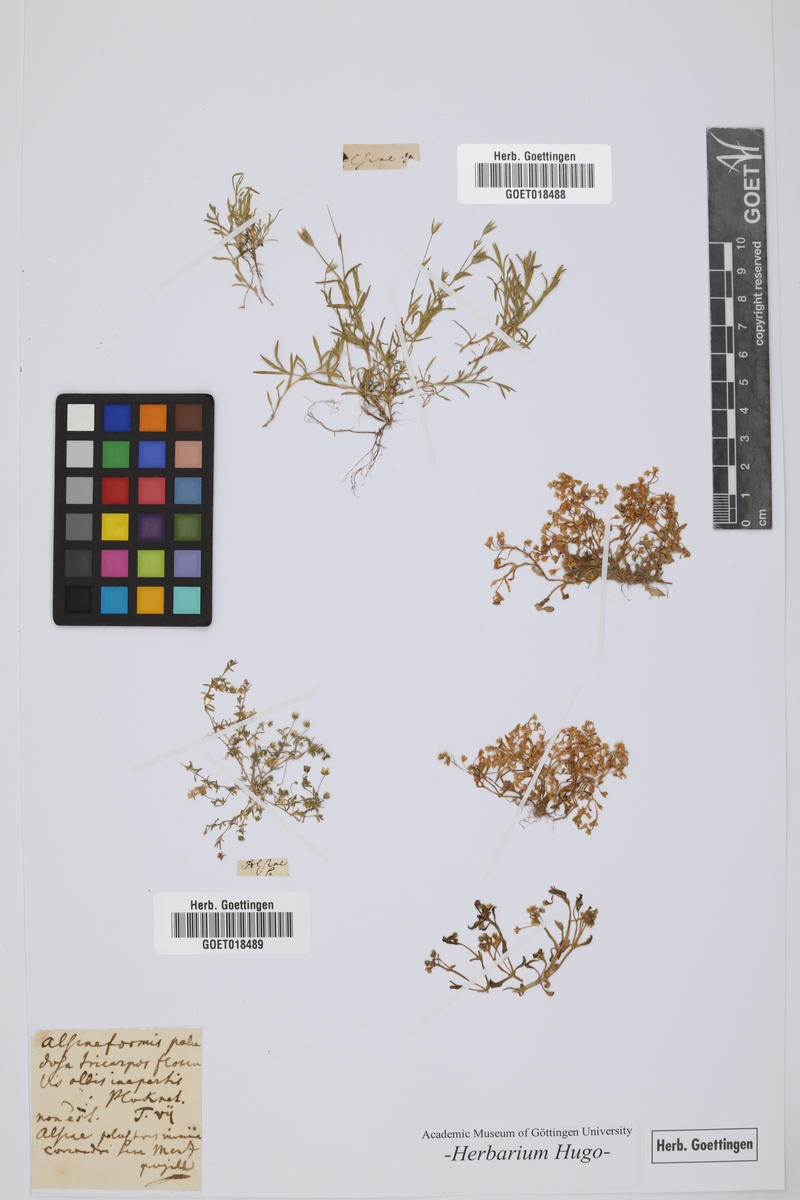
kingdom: Plantae
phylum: Tracheophyta
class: Magnoliopsida
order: Caryophyllales
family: Caryophyllaceae
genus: Alsine
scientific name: Alsine
